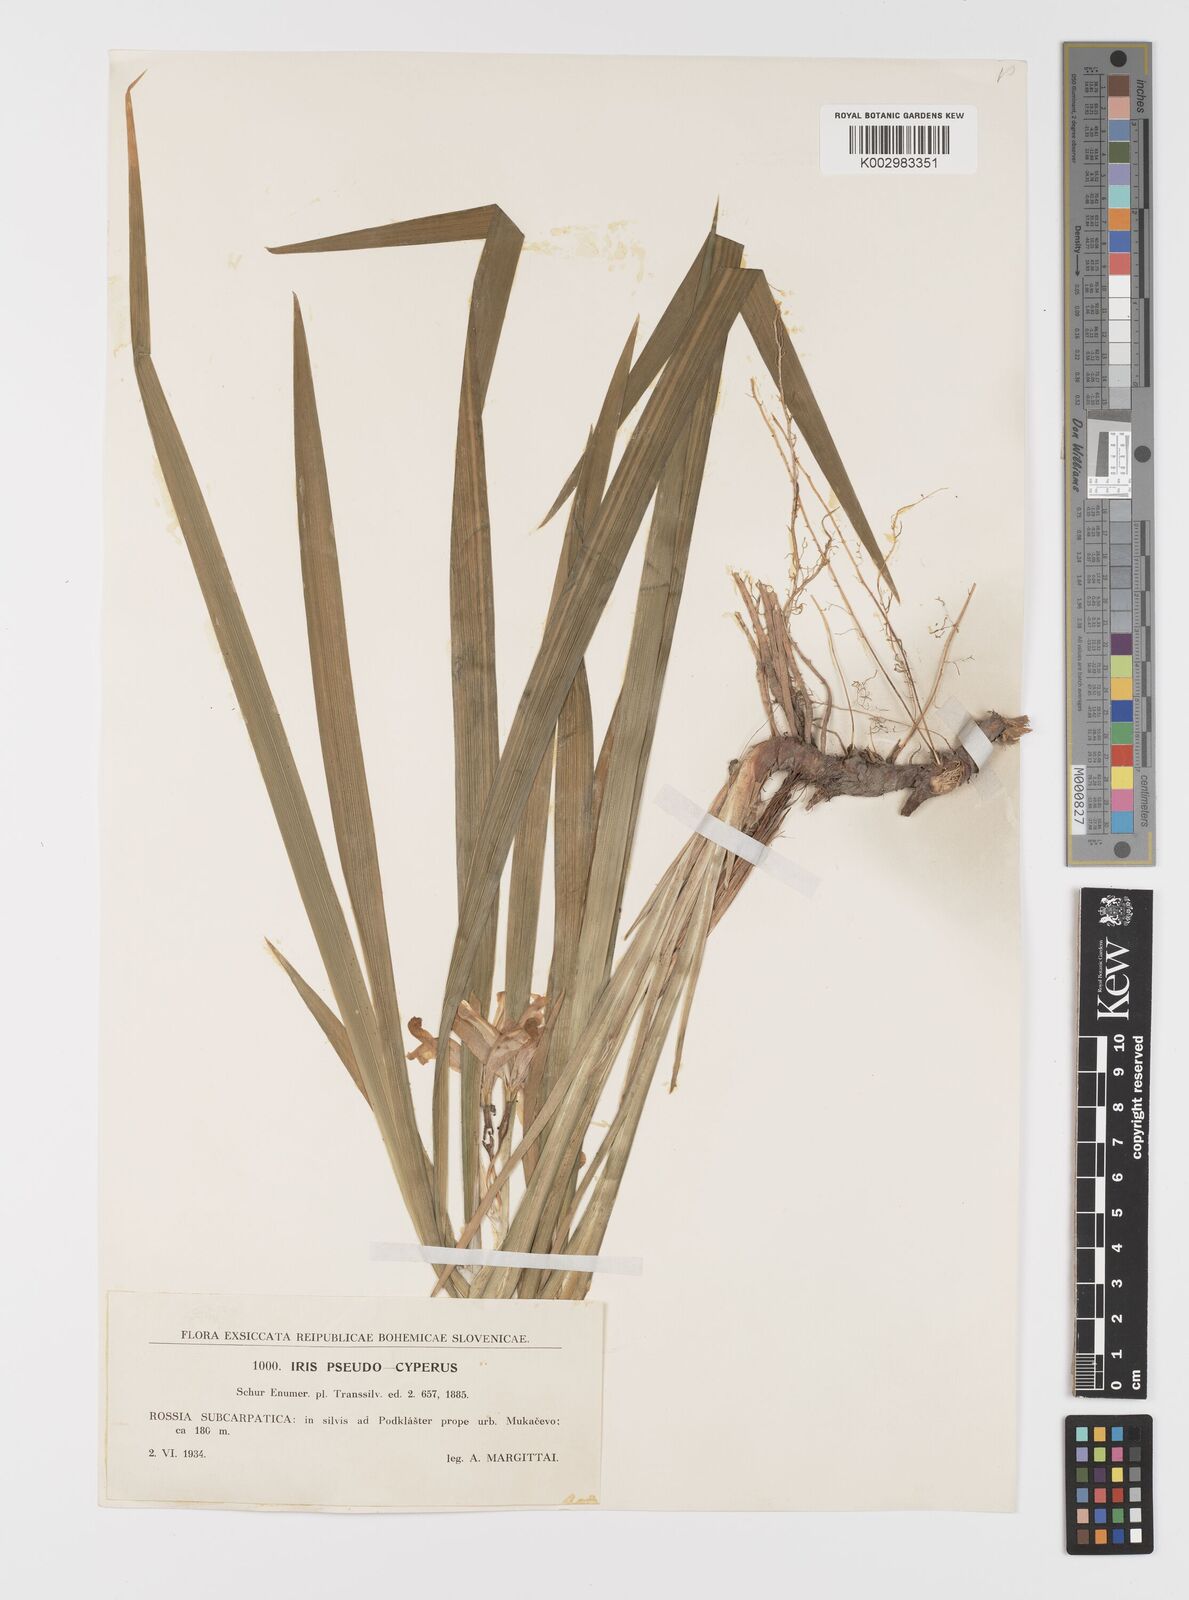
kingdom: Plantae
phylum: Tracheophyta
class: Liliopsida
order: Asparagales
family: Iridaceae
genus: Iris
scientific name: Iris graminea
